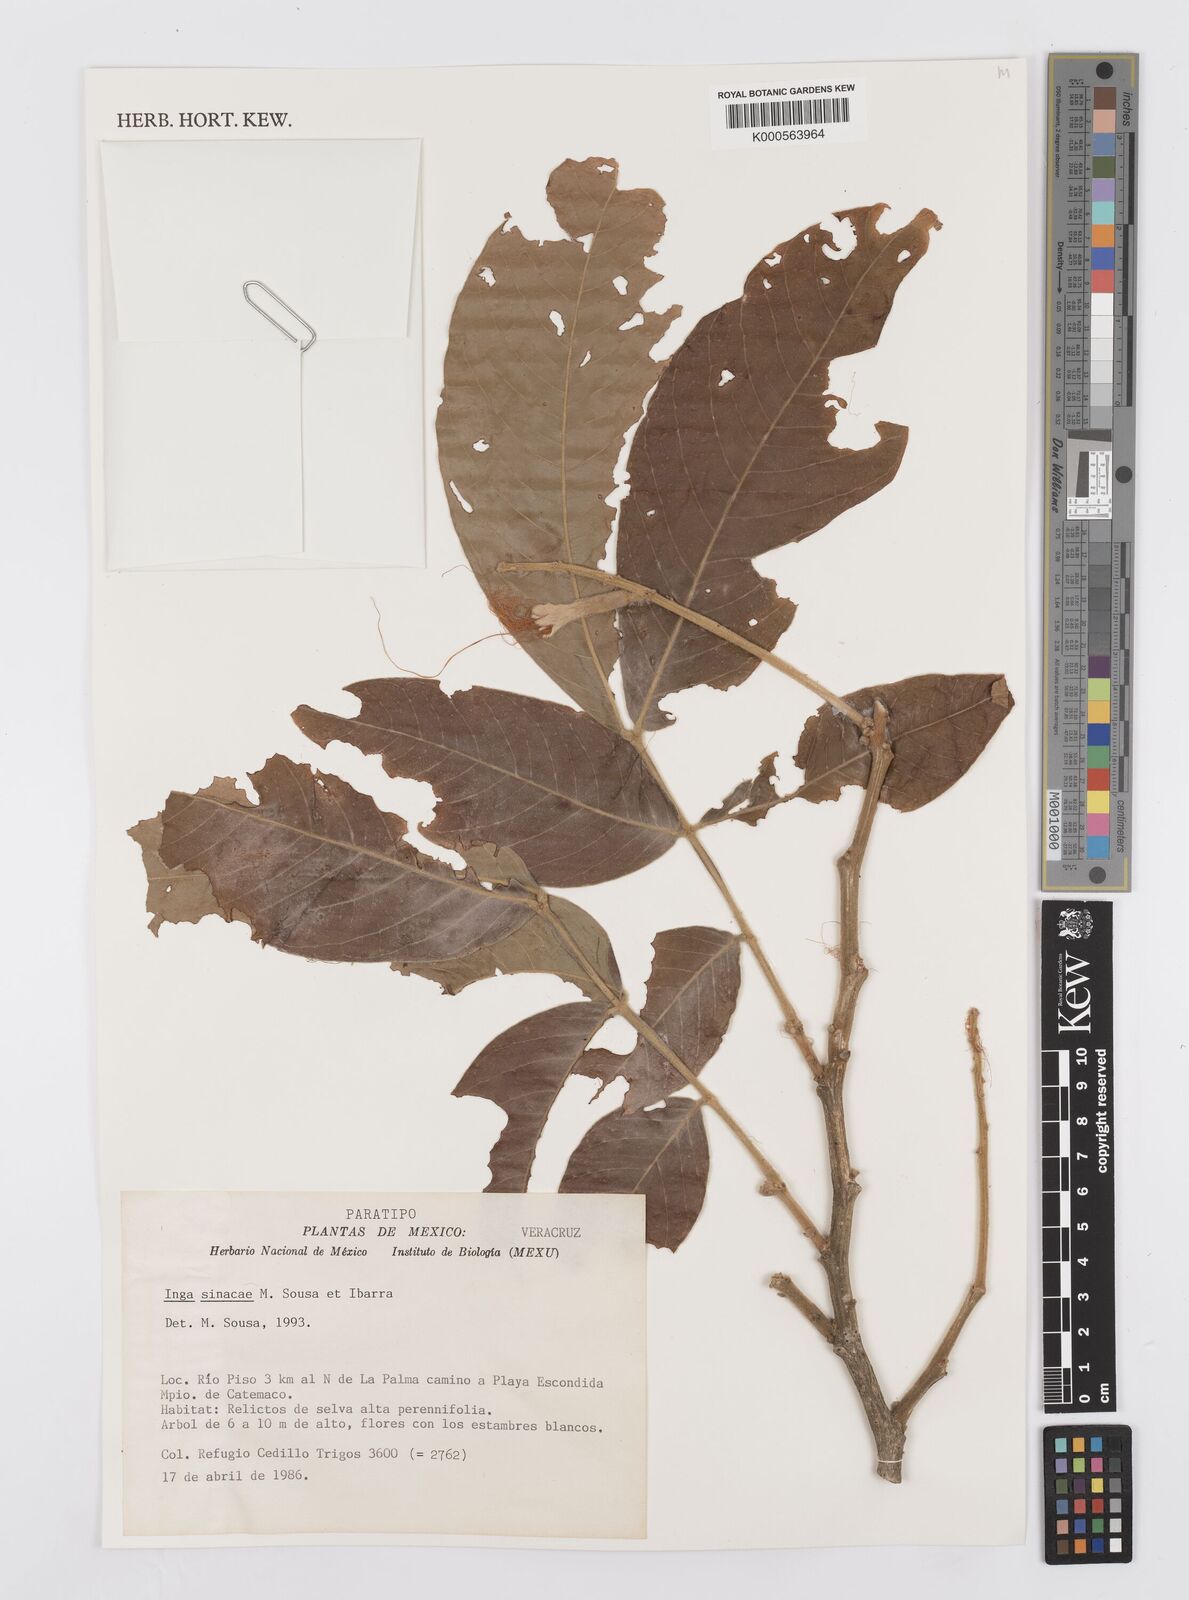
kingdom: Plantae
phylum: Tracheophyta
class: Magnoliopsida
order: Fabales
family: Fabaceae
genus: Inga
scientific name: Inga sinacae
